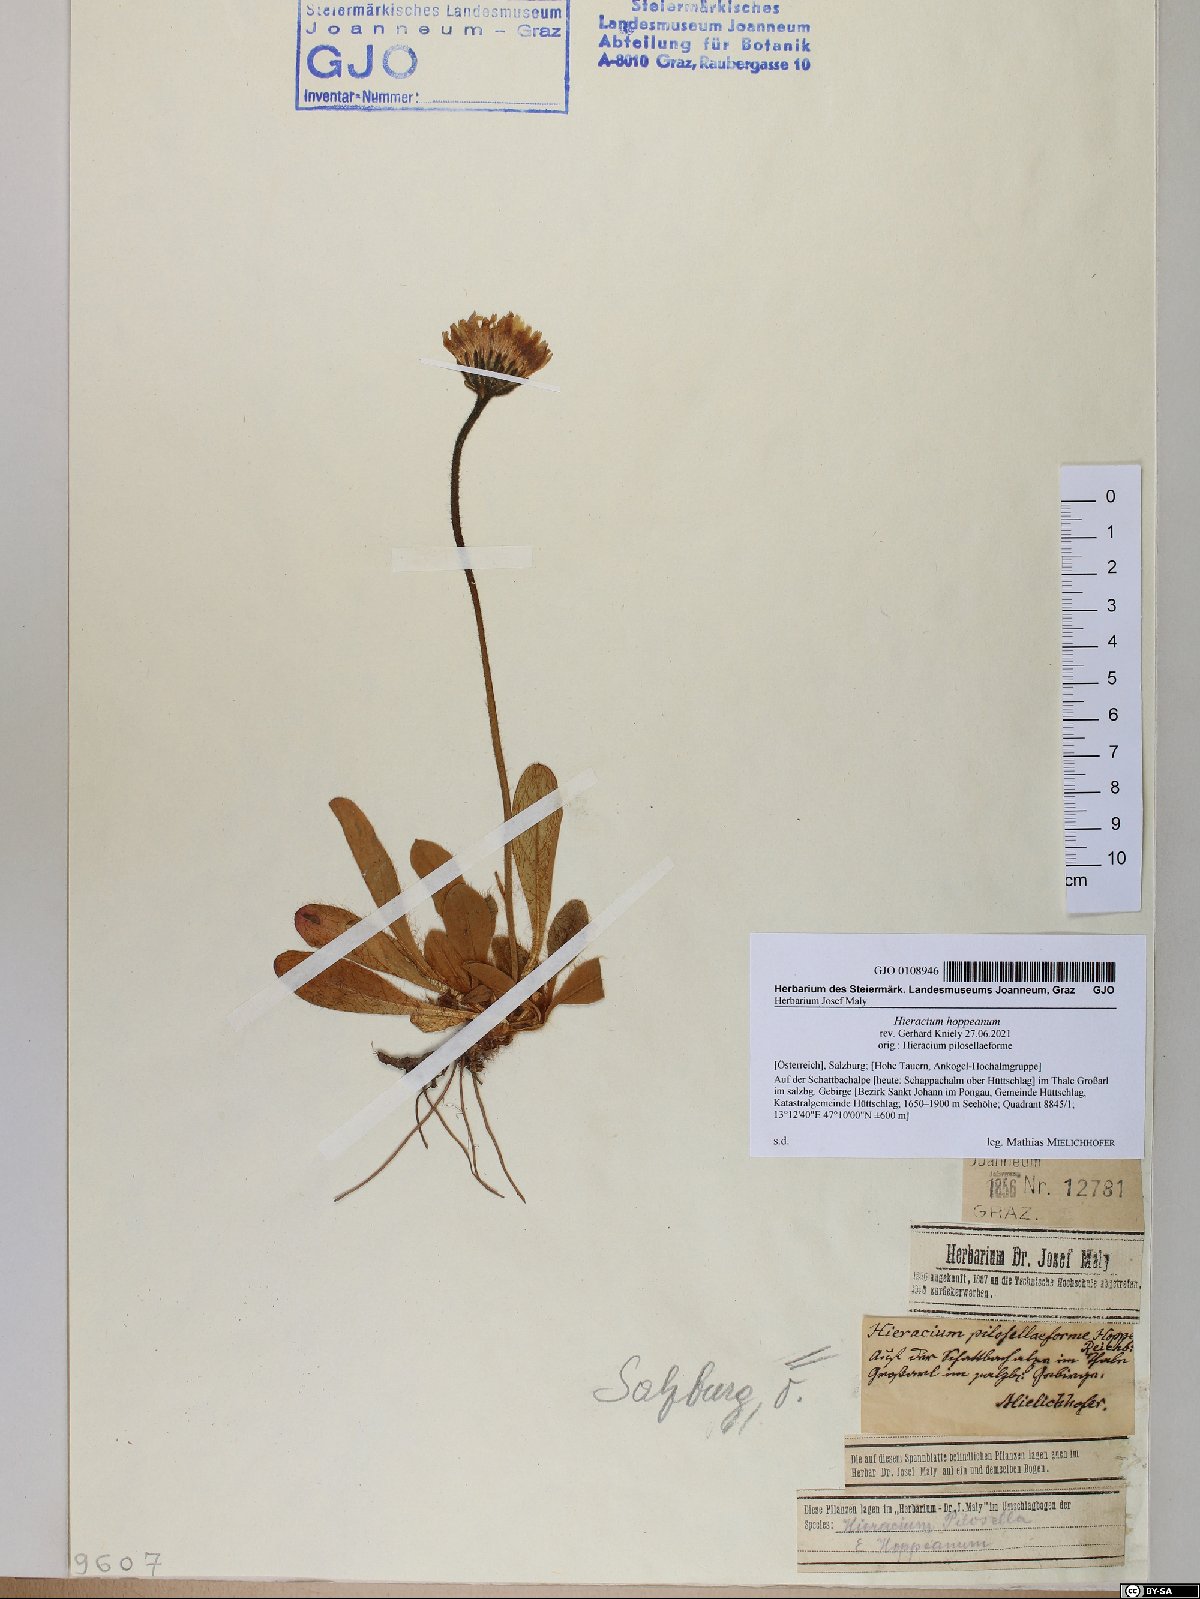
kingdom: Plantae
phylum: Tracheophyta
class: Magnoliopsida
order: Asterales
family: Asteraceae
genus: Pilosella
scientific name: Pilosella hoppeana
